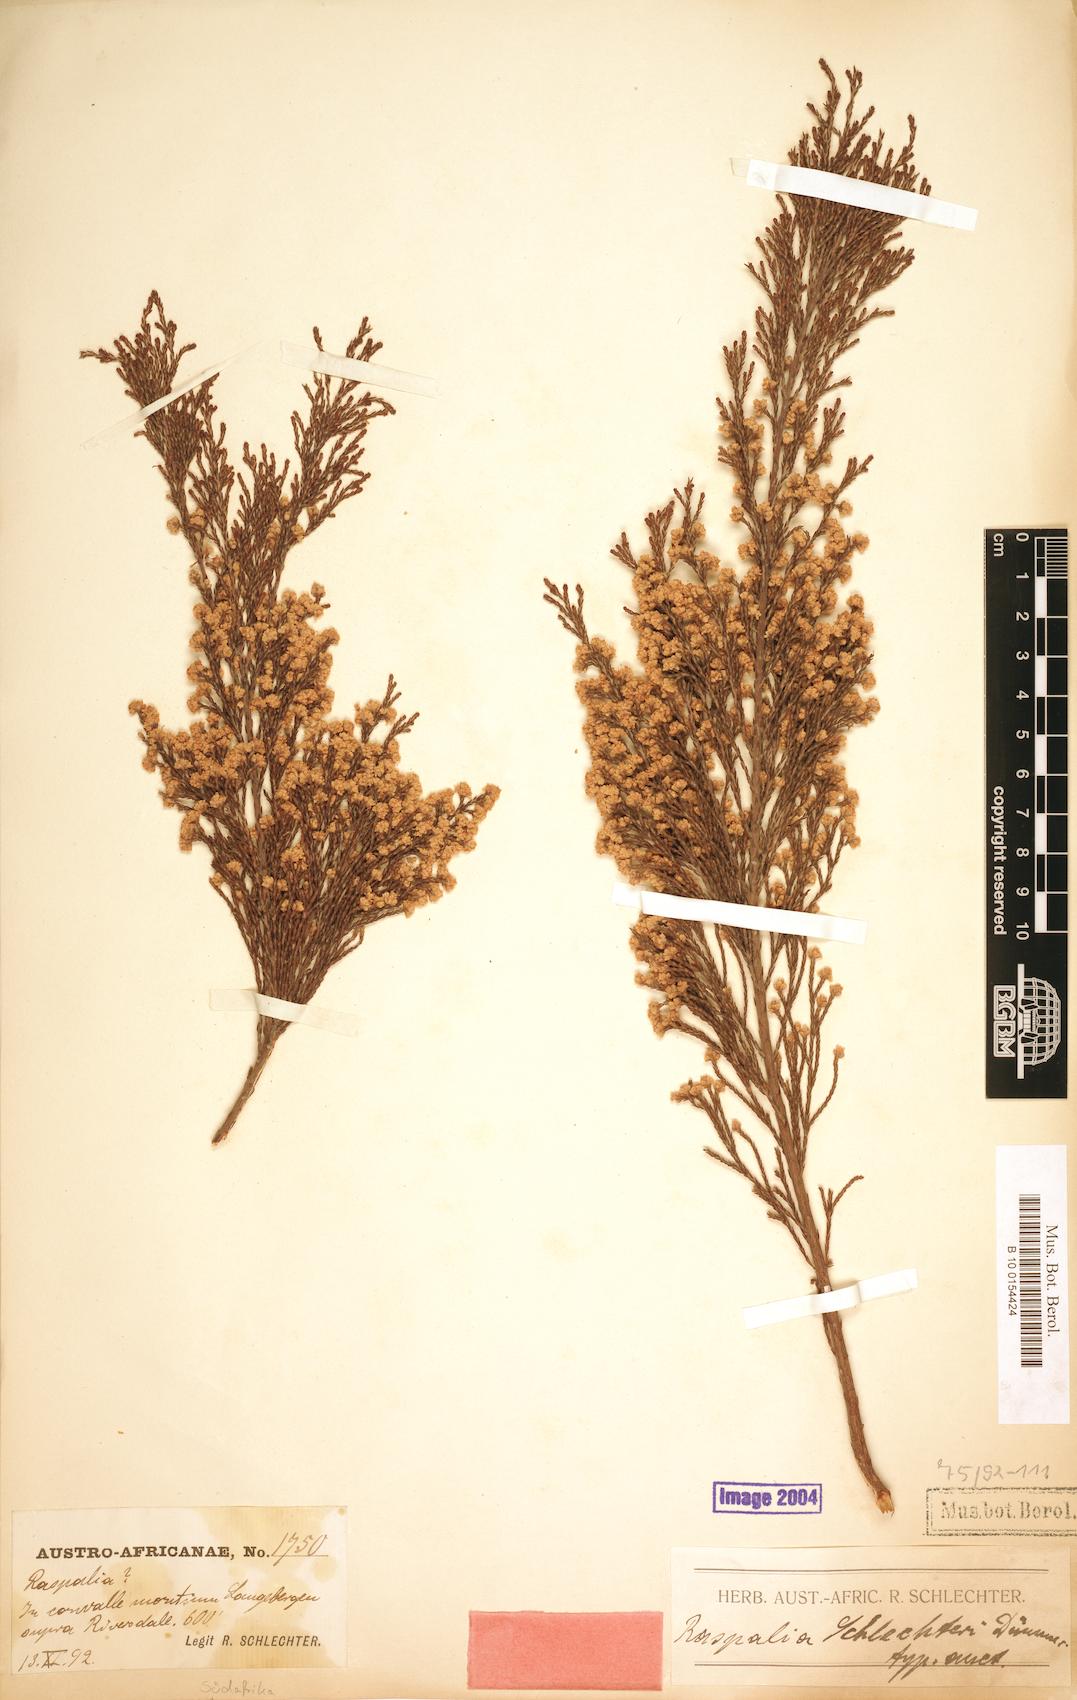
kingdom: Plantae
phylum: Tracheophyta
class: Magnoliopsida
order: Bruniales
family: Bruniaceae
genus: Brunia
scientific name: Brunia schlechteri
